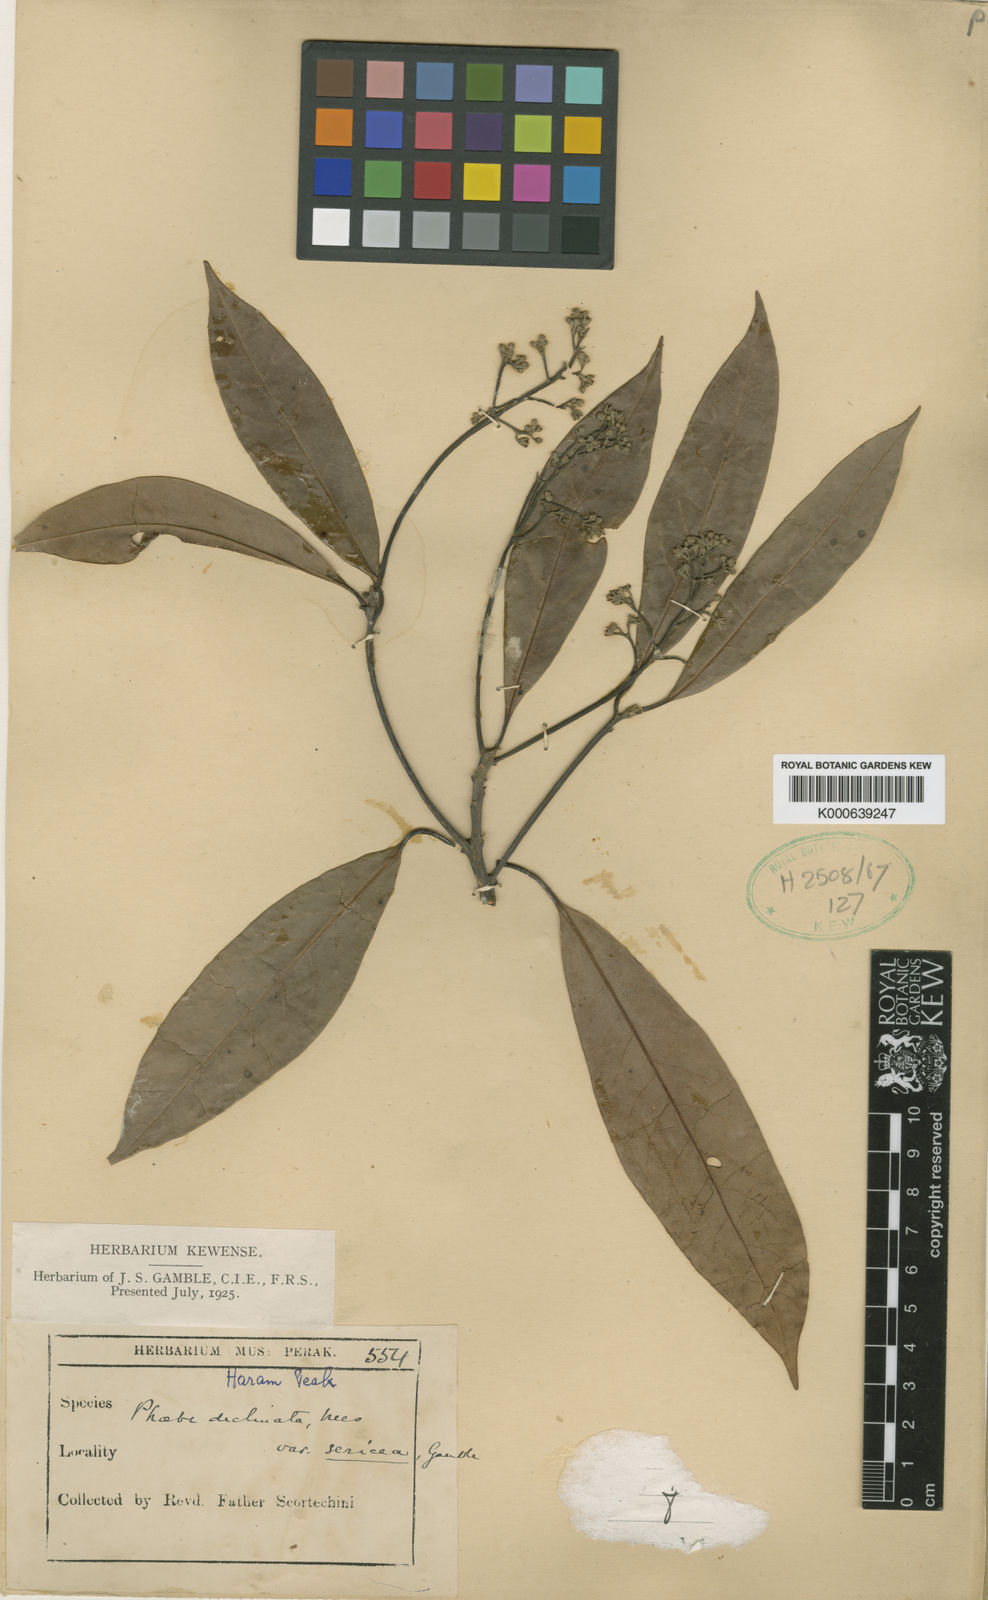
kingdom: Plantae
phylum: Tracheophyta
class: Magnoliopsida
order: Laurales
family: Lauraceae
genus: Machilus
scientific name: Machilus declinata
